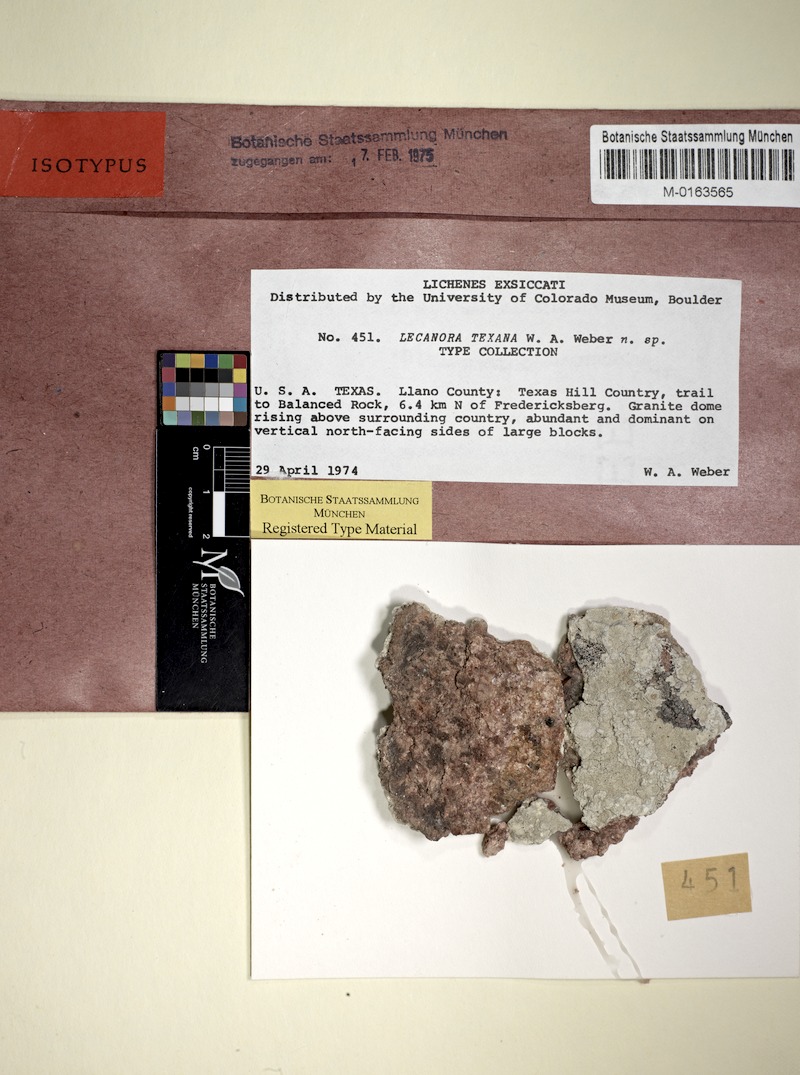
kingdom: Fungi
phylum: Ascomycota
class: Lecanoromycetes
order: Lecanorales
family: Lecanoraceae
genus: Lecanora
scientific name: Lecanora texana
